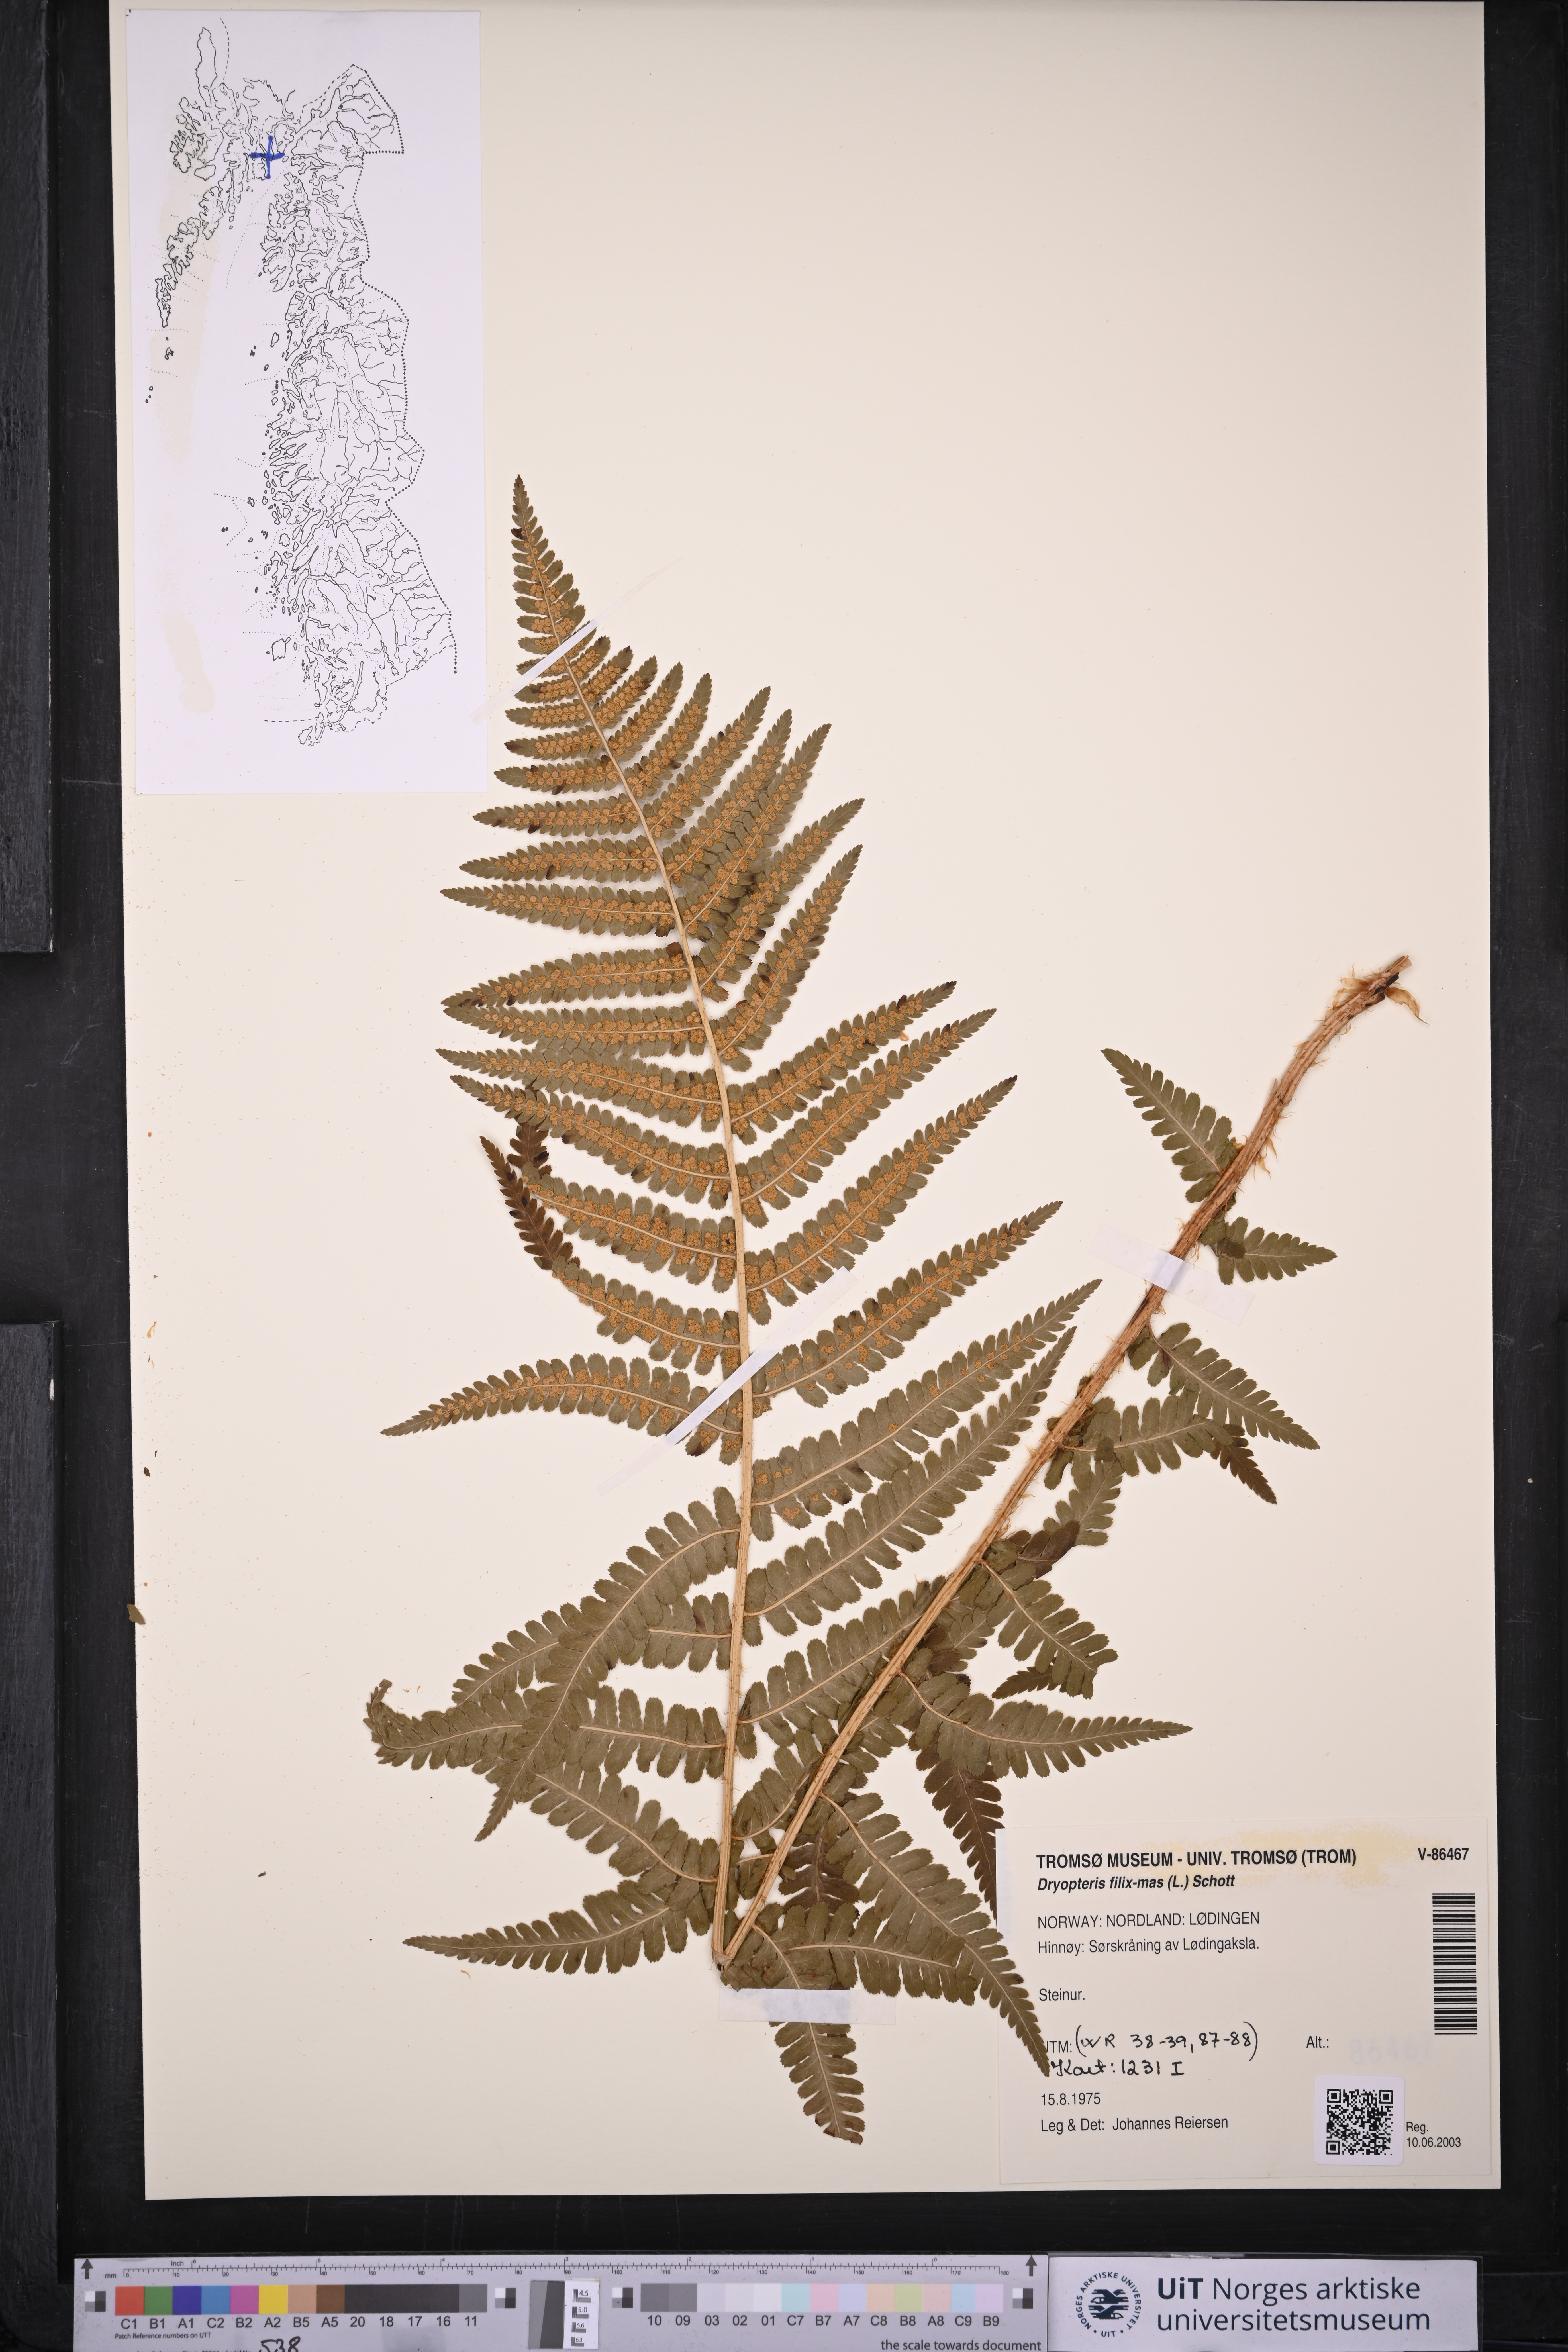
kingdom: Plantae
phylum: Tracheophyta
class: Polypodiopsida
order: Polypodiales
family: Dryopteridaceae
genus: Dryopteris
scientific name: Dryopteris filix-mas
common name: Male fern
